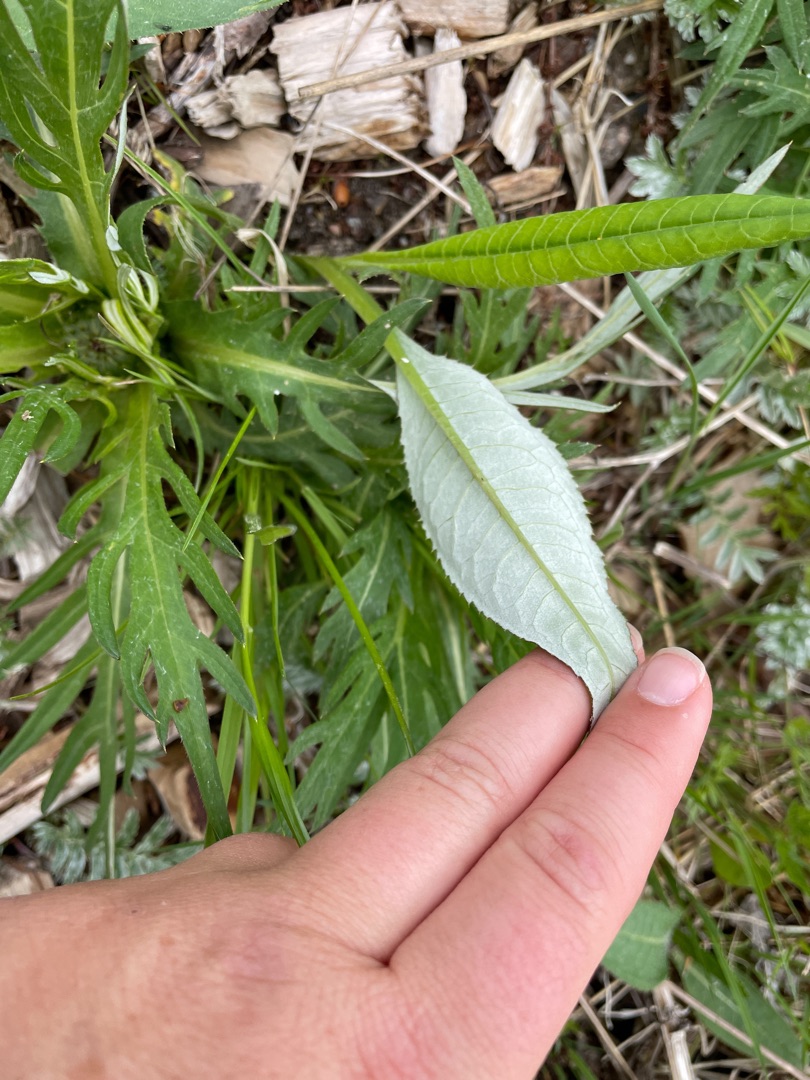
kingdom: Plantae
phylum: Tracheophyta
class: Magnoliopsida
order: Asterales
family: Asteraceae
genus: Cirsium
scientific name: Cirsium heterophyllum
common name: Forskelligbladet tidsel
